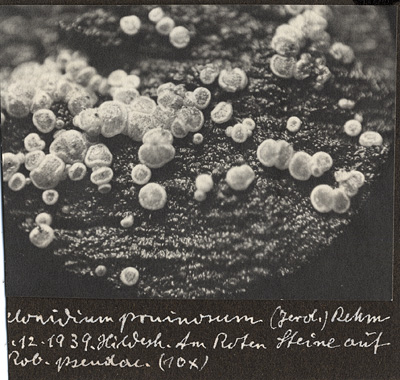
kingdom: Fungi
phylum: Ascomycota
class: Leotiomycetes
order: Helotiales
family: Hyaloscyphaceae
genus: Polydesmia
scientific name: Polydesmia pruinosa
